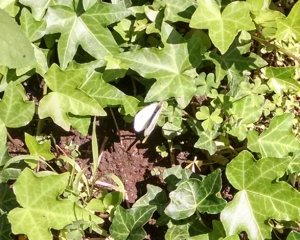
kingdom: Animalia
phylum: Arthropoda
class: Insecta
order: Lepidoptera
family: Pieridae
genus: Pieris
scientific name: Pieris rapae
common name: Cabbage White
